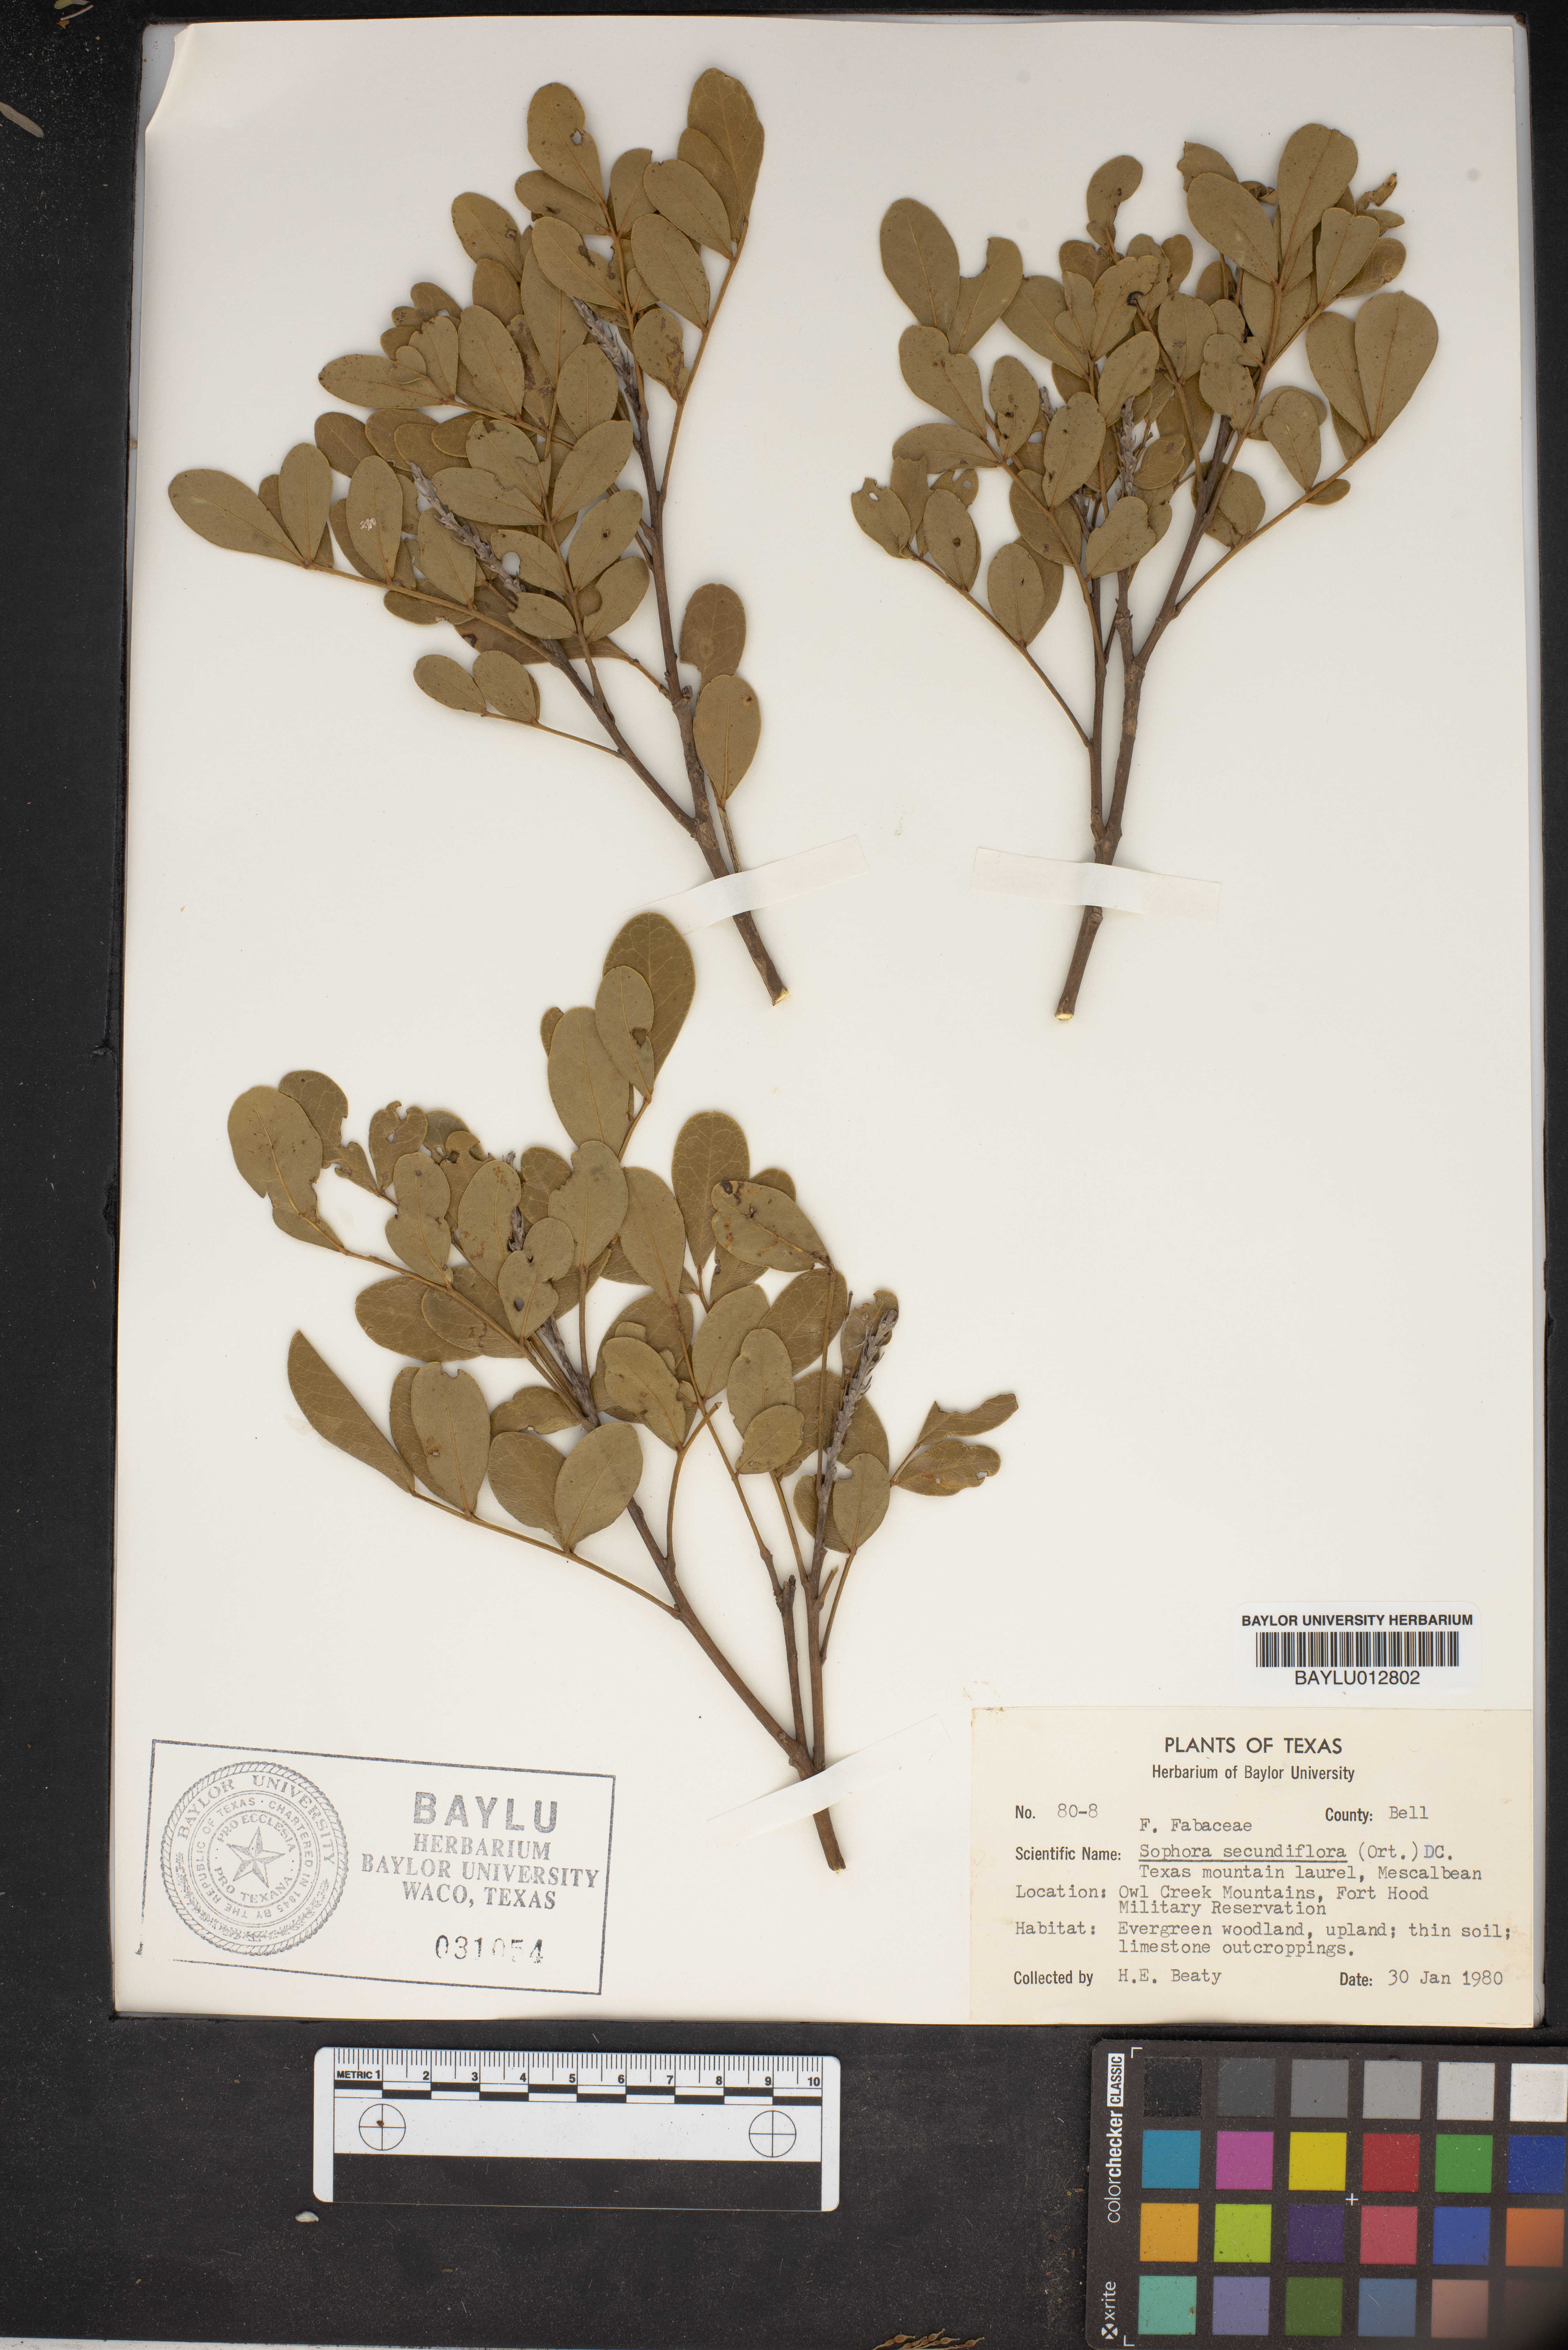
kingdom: Plantae
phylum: Tracheophyta
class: Magnoliopsida
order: Fabales
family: Fabaceae
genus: Dermatophyllum
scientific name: Dermatophyllum secundiflorum
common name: Texas-mountain-laurel
